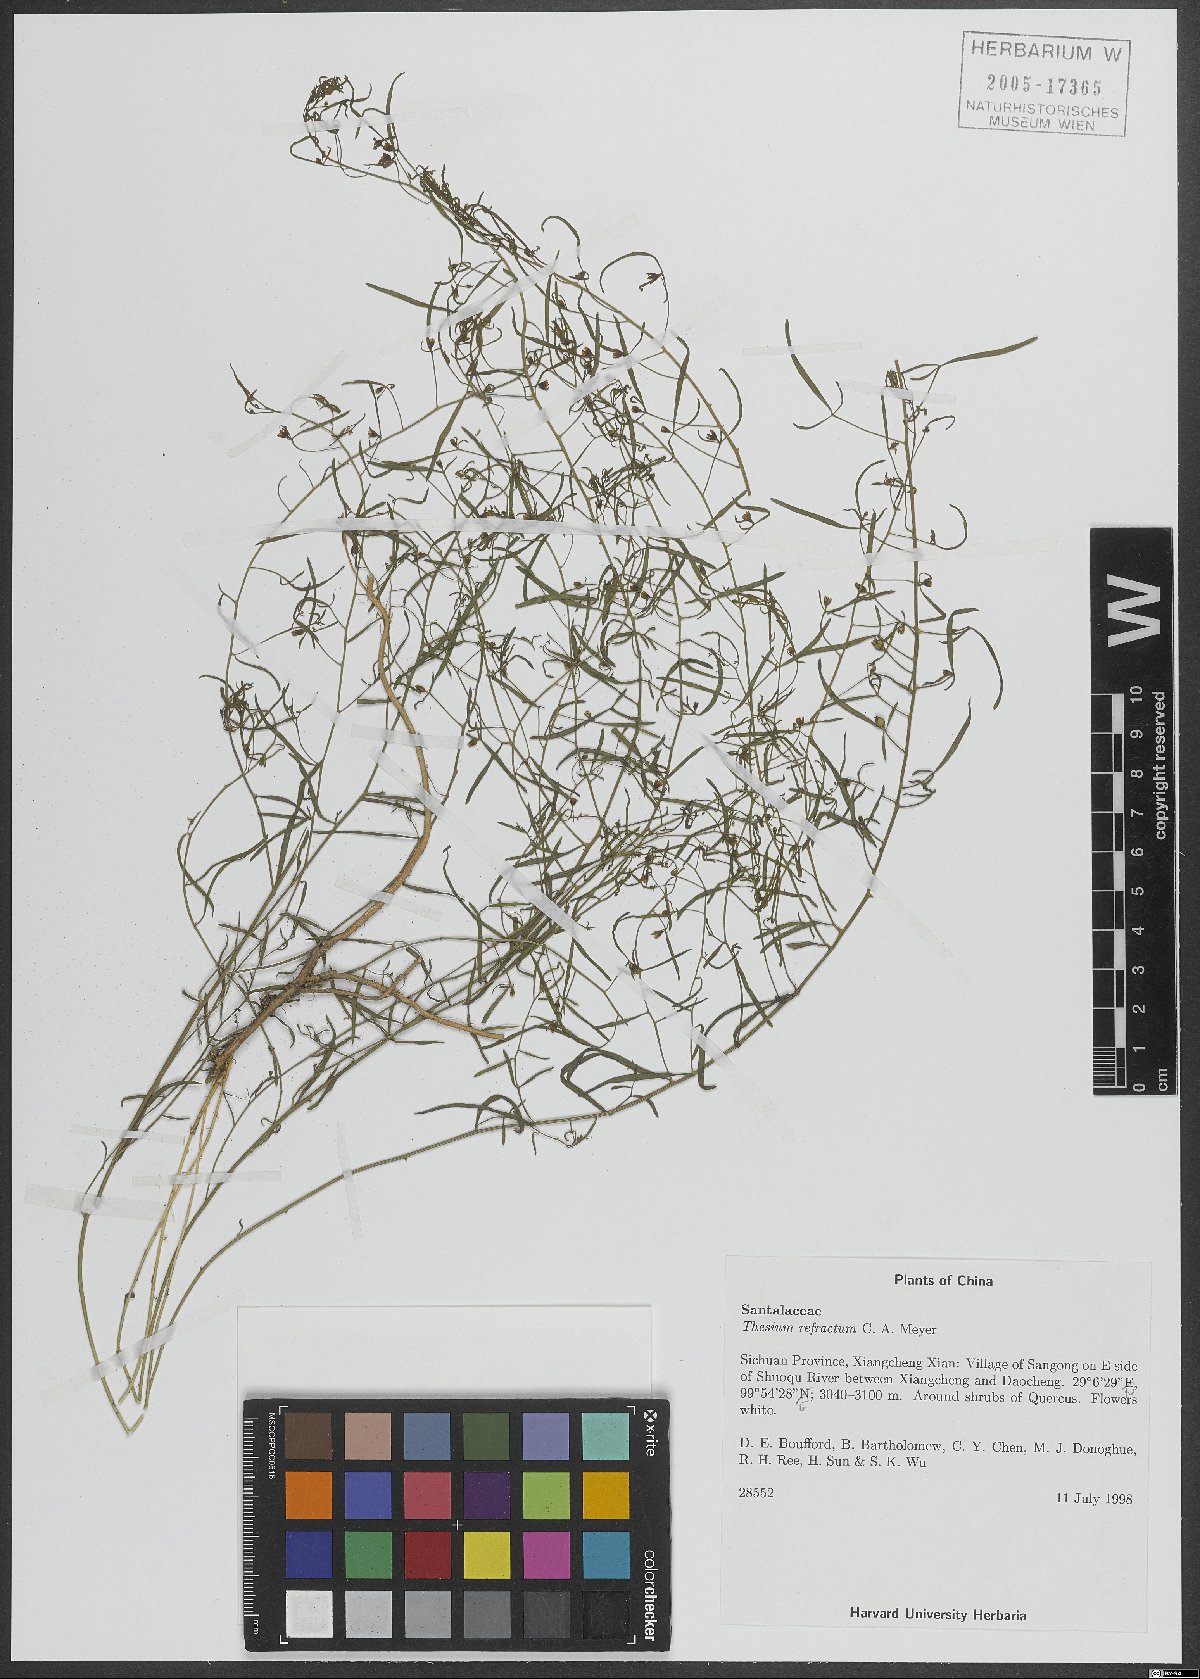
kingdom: Plantae
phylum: Tracheophyta
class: Magnoliopsida
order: Santalales
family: Thesiaceae
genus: Thesium
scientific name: Thesium refractum
